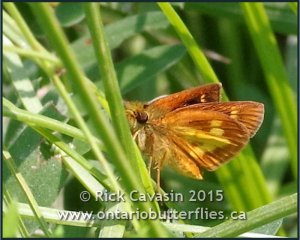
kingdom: Animalia
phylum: Arthropoda
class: Insecta
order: Lepidoptera
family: Hesperiidae
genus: Poanes
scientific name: Poanes massasoit
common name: Mulberry Wing
